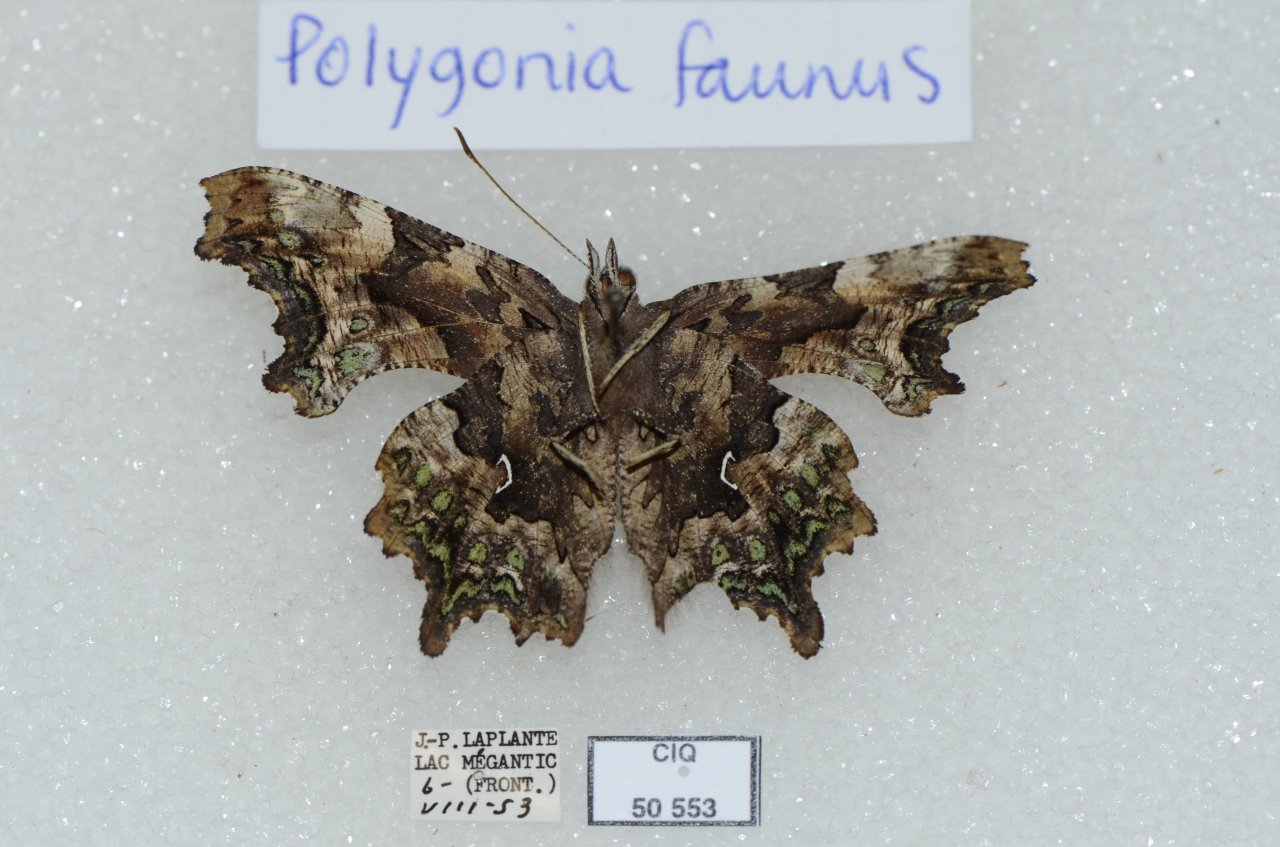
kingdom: Animalia
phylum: Arthropoda
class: Insecta
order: Lepidoptera
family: Nymphalidae
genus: Polygonia
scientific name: Polygonia faunus
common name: Green Comma
